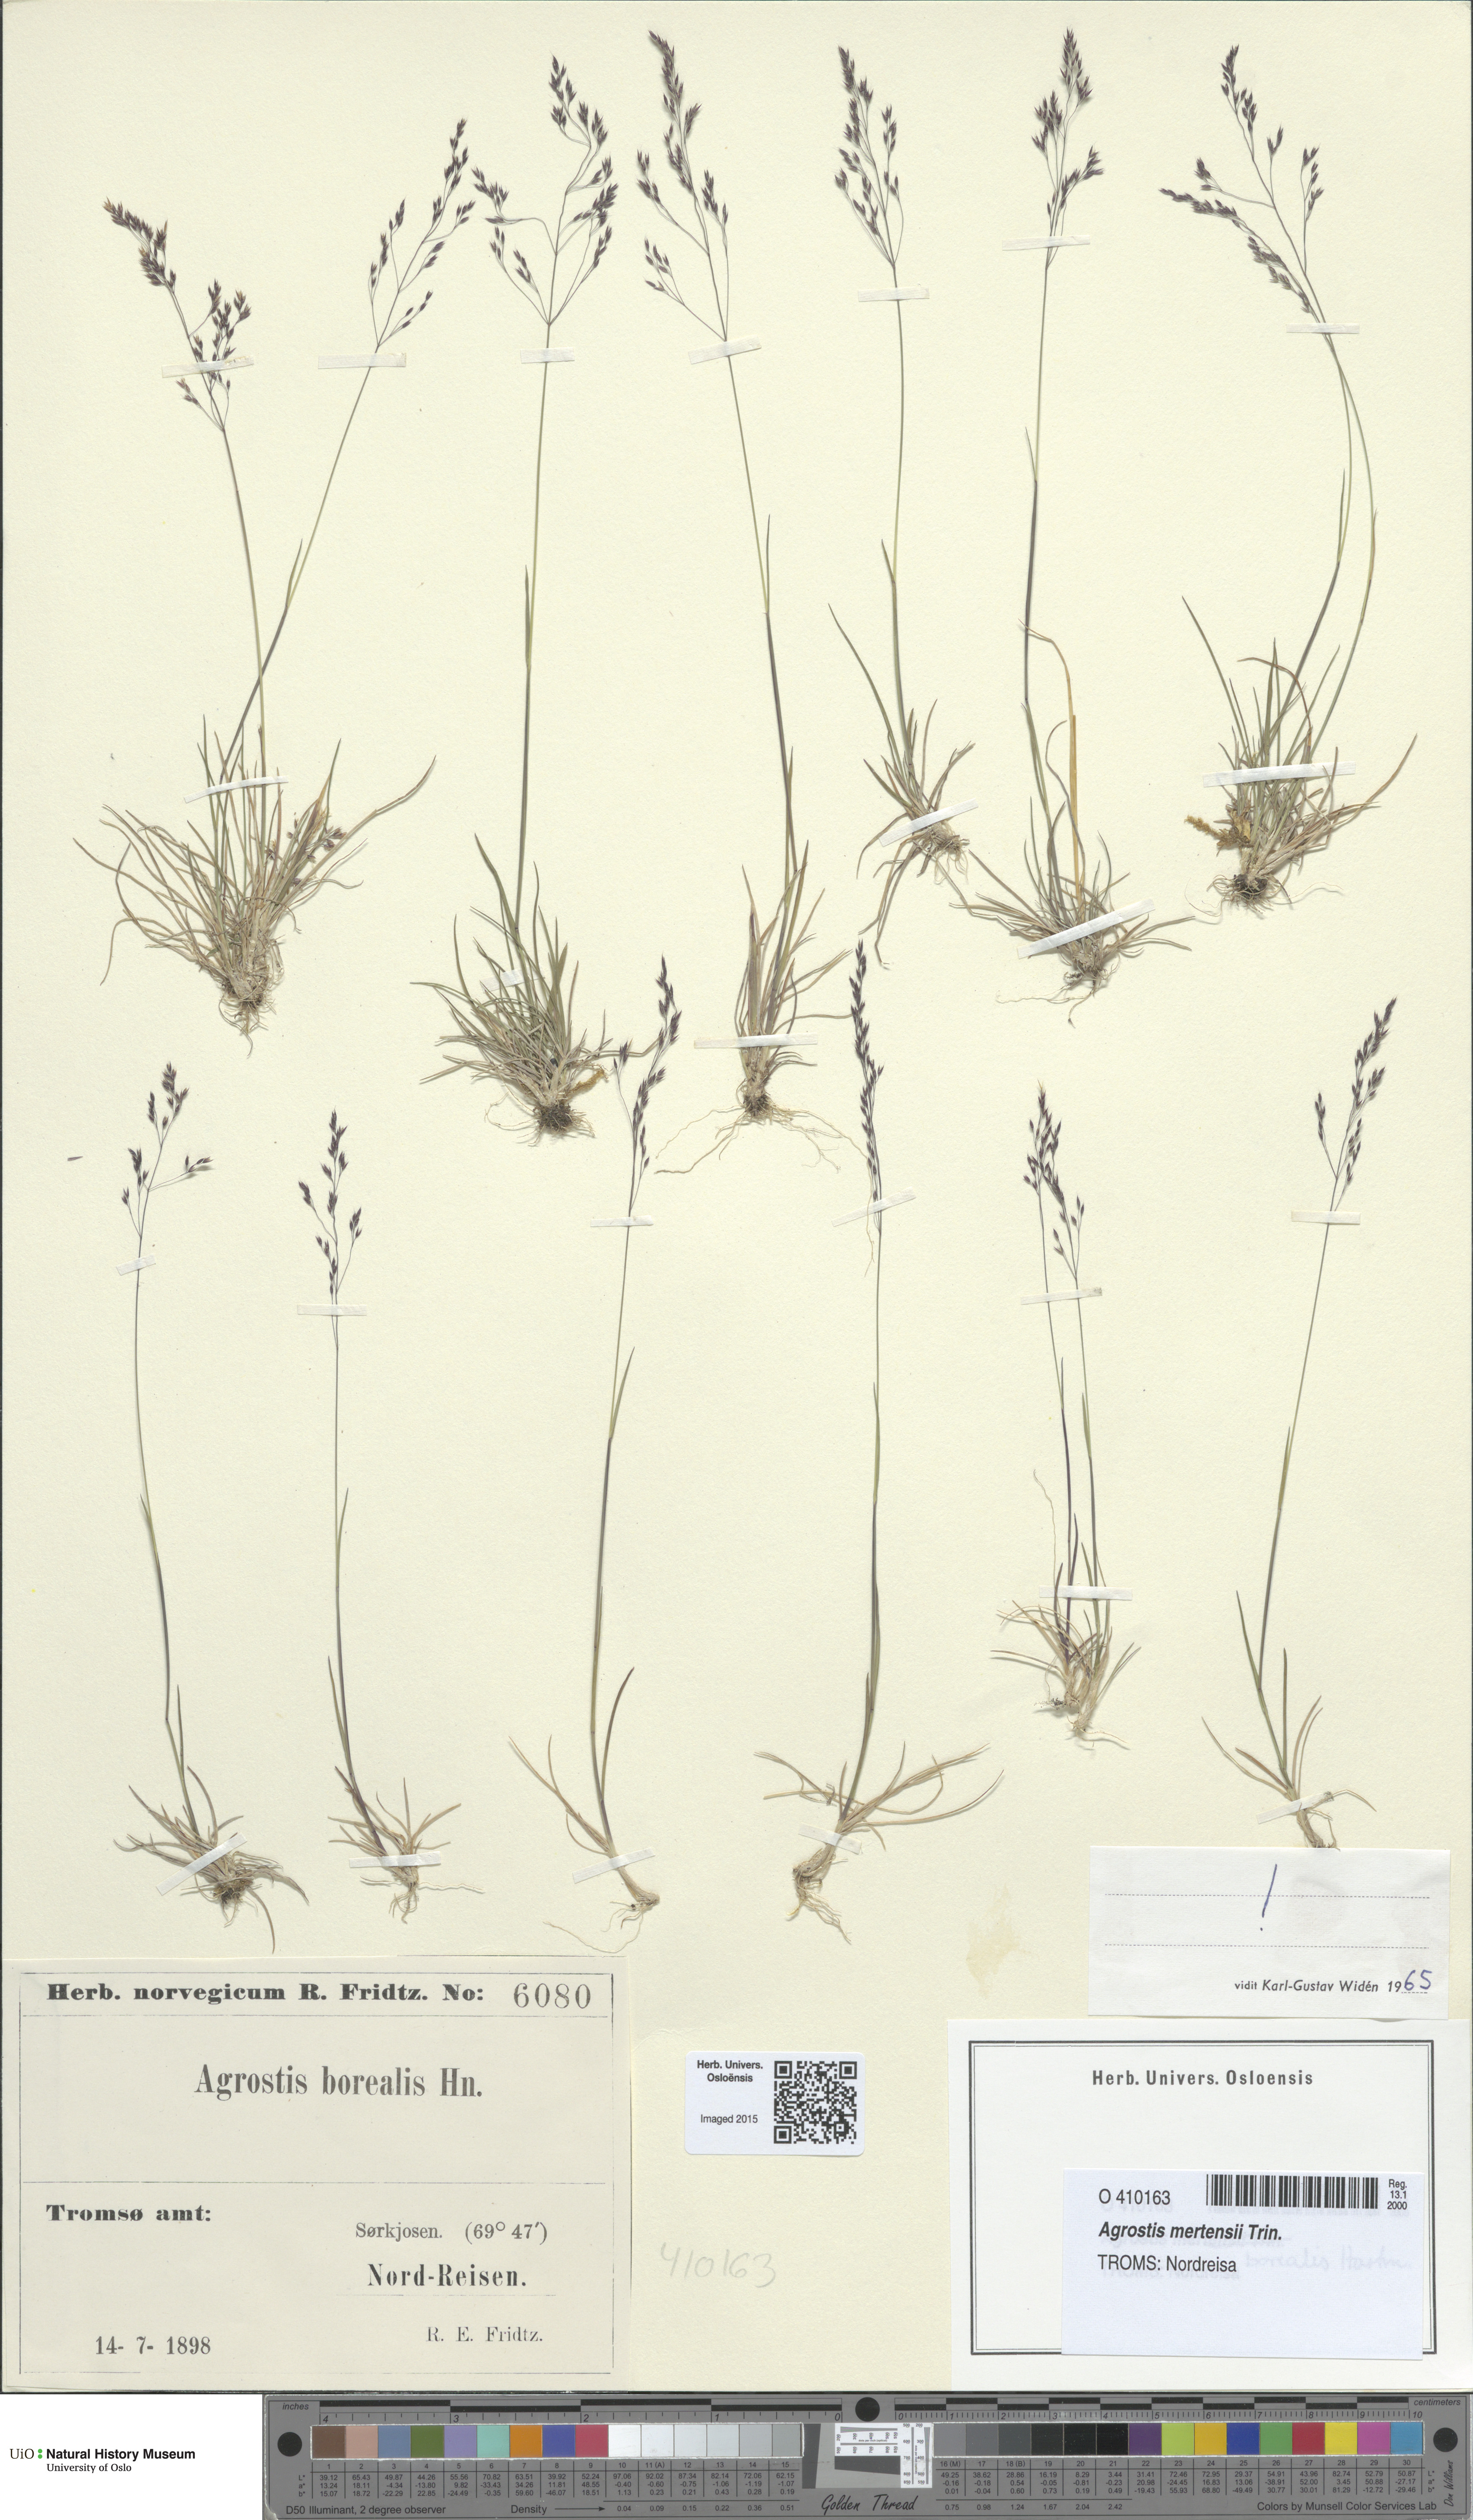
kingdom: Plantae
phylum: Tracheophyta
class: Liliopsida
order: Poales
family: Poaceae
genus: Agrostis
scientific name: Agrostis mertensii
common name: Northern bent
